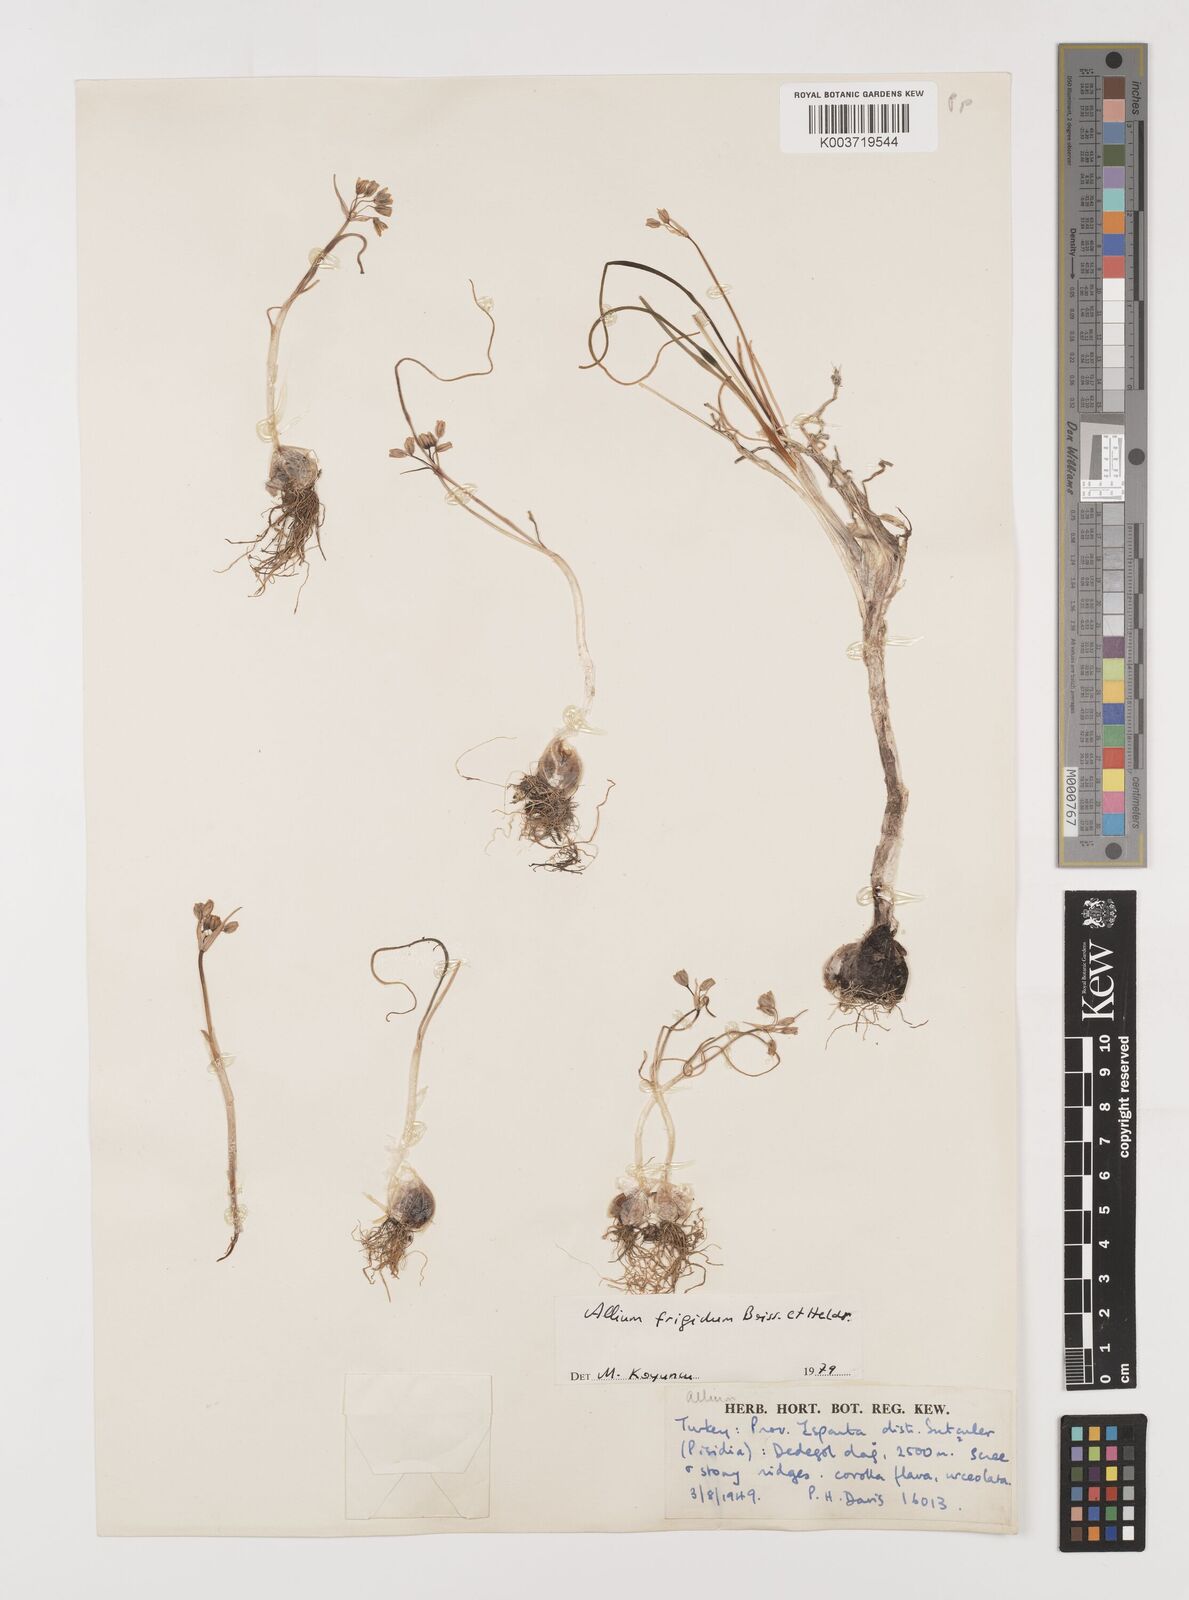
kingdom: Plantae
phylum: Tracheophyta
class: Liliopsida
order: Asparagales
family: Amaryllidaceae
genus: Allium
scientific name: Allium frigidum
